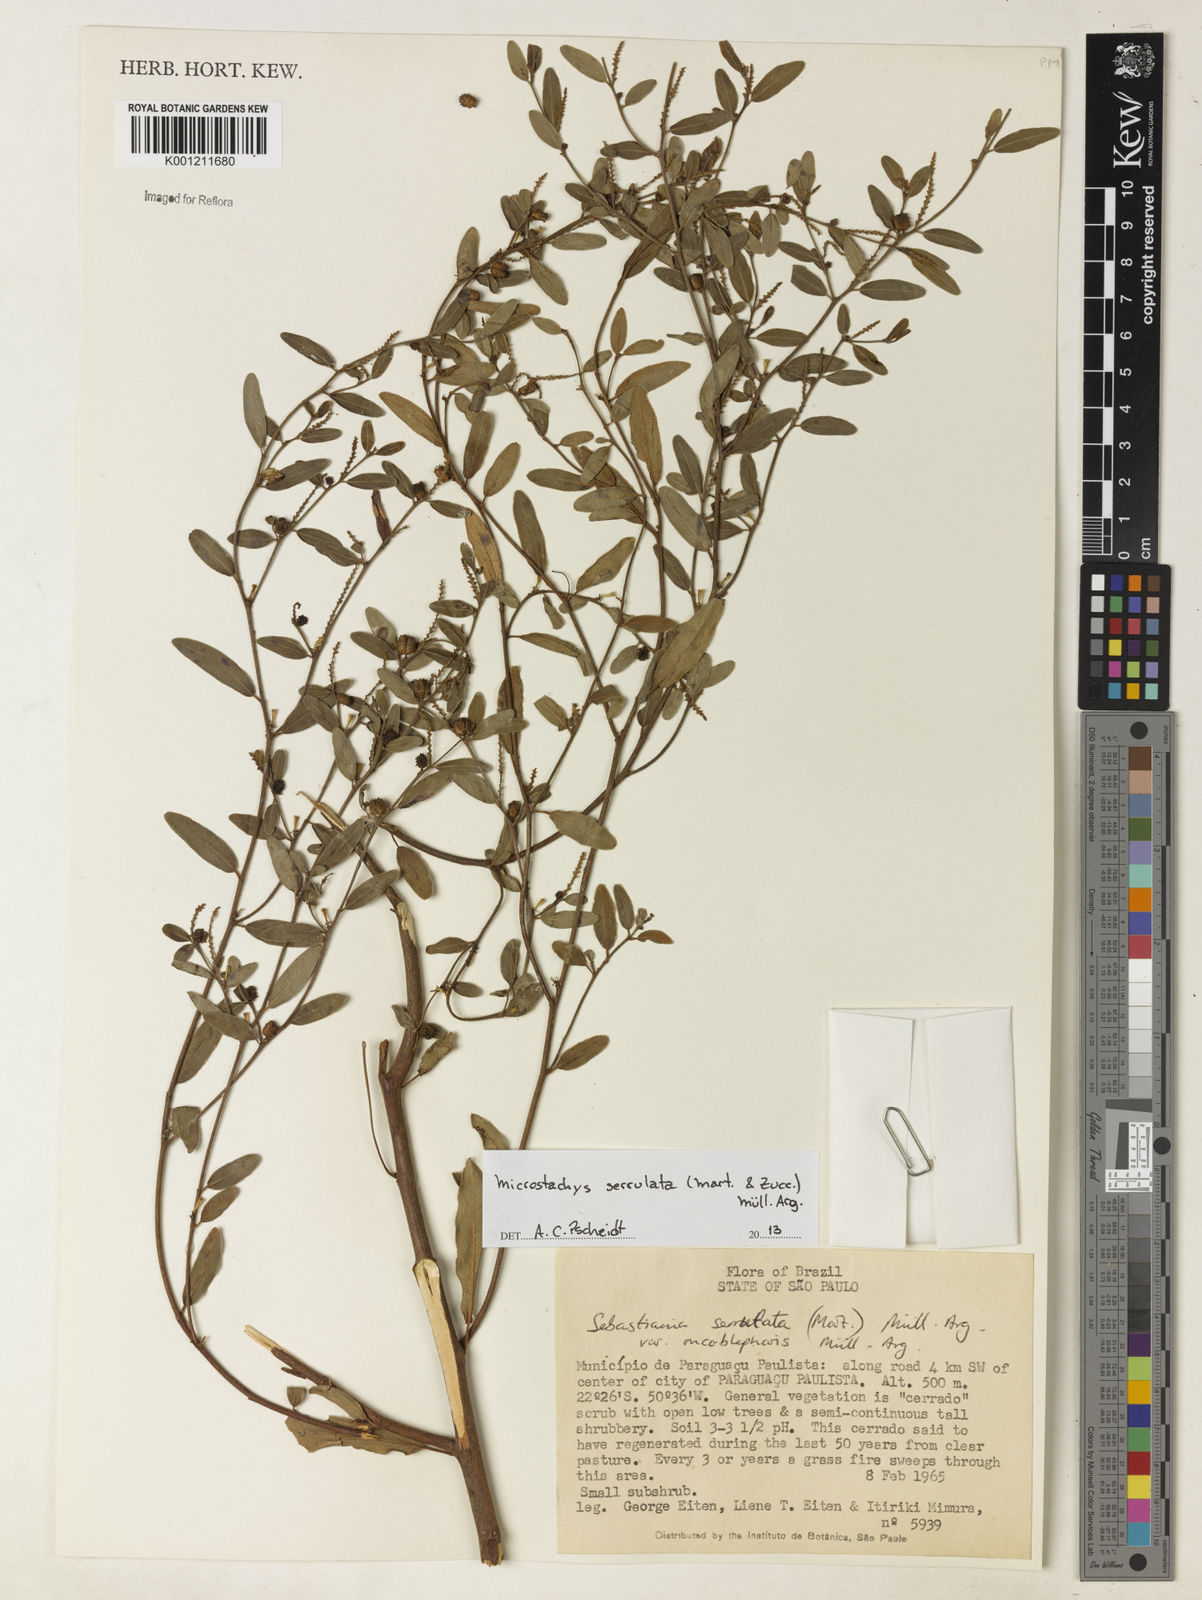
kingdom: Plantae
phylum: Tracheophyta
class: Magnoliopsida
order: Malpighiales
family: Euphorbiaceae
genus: Microstachys
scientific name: Microstachys
